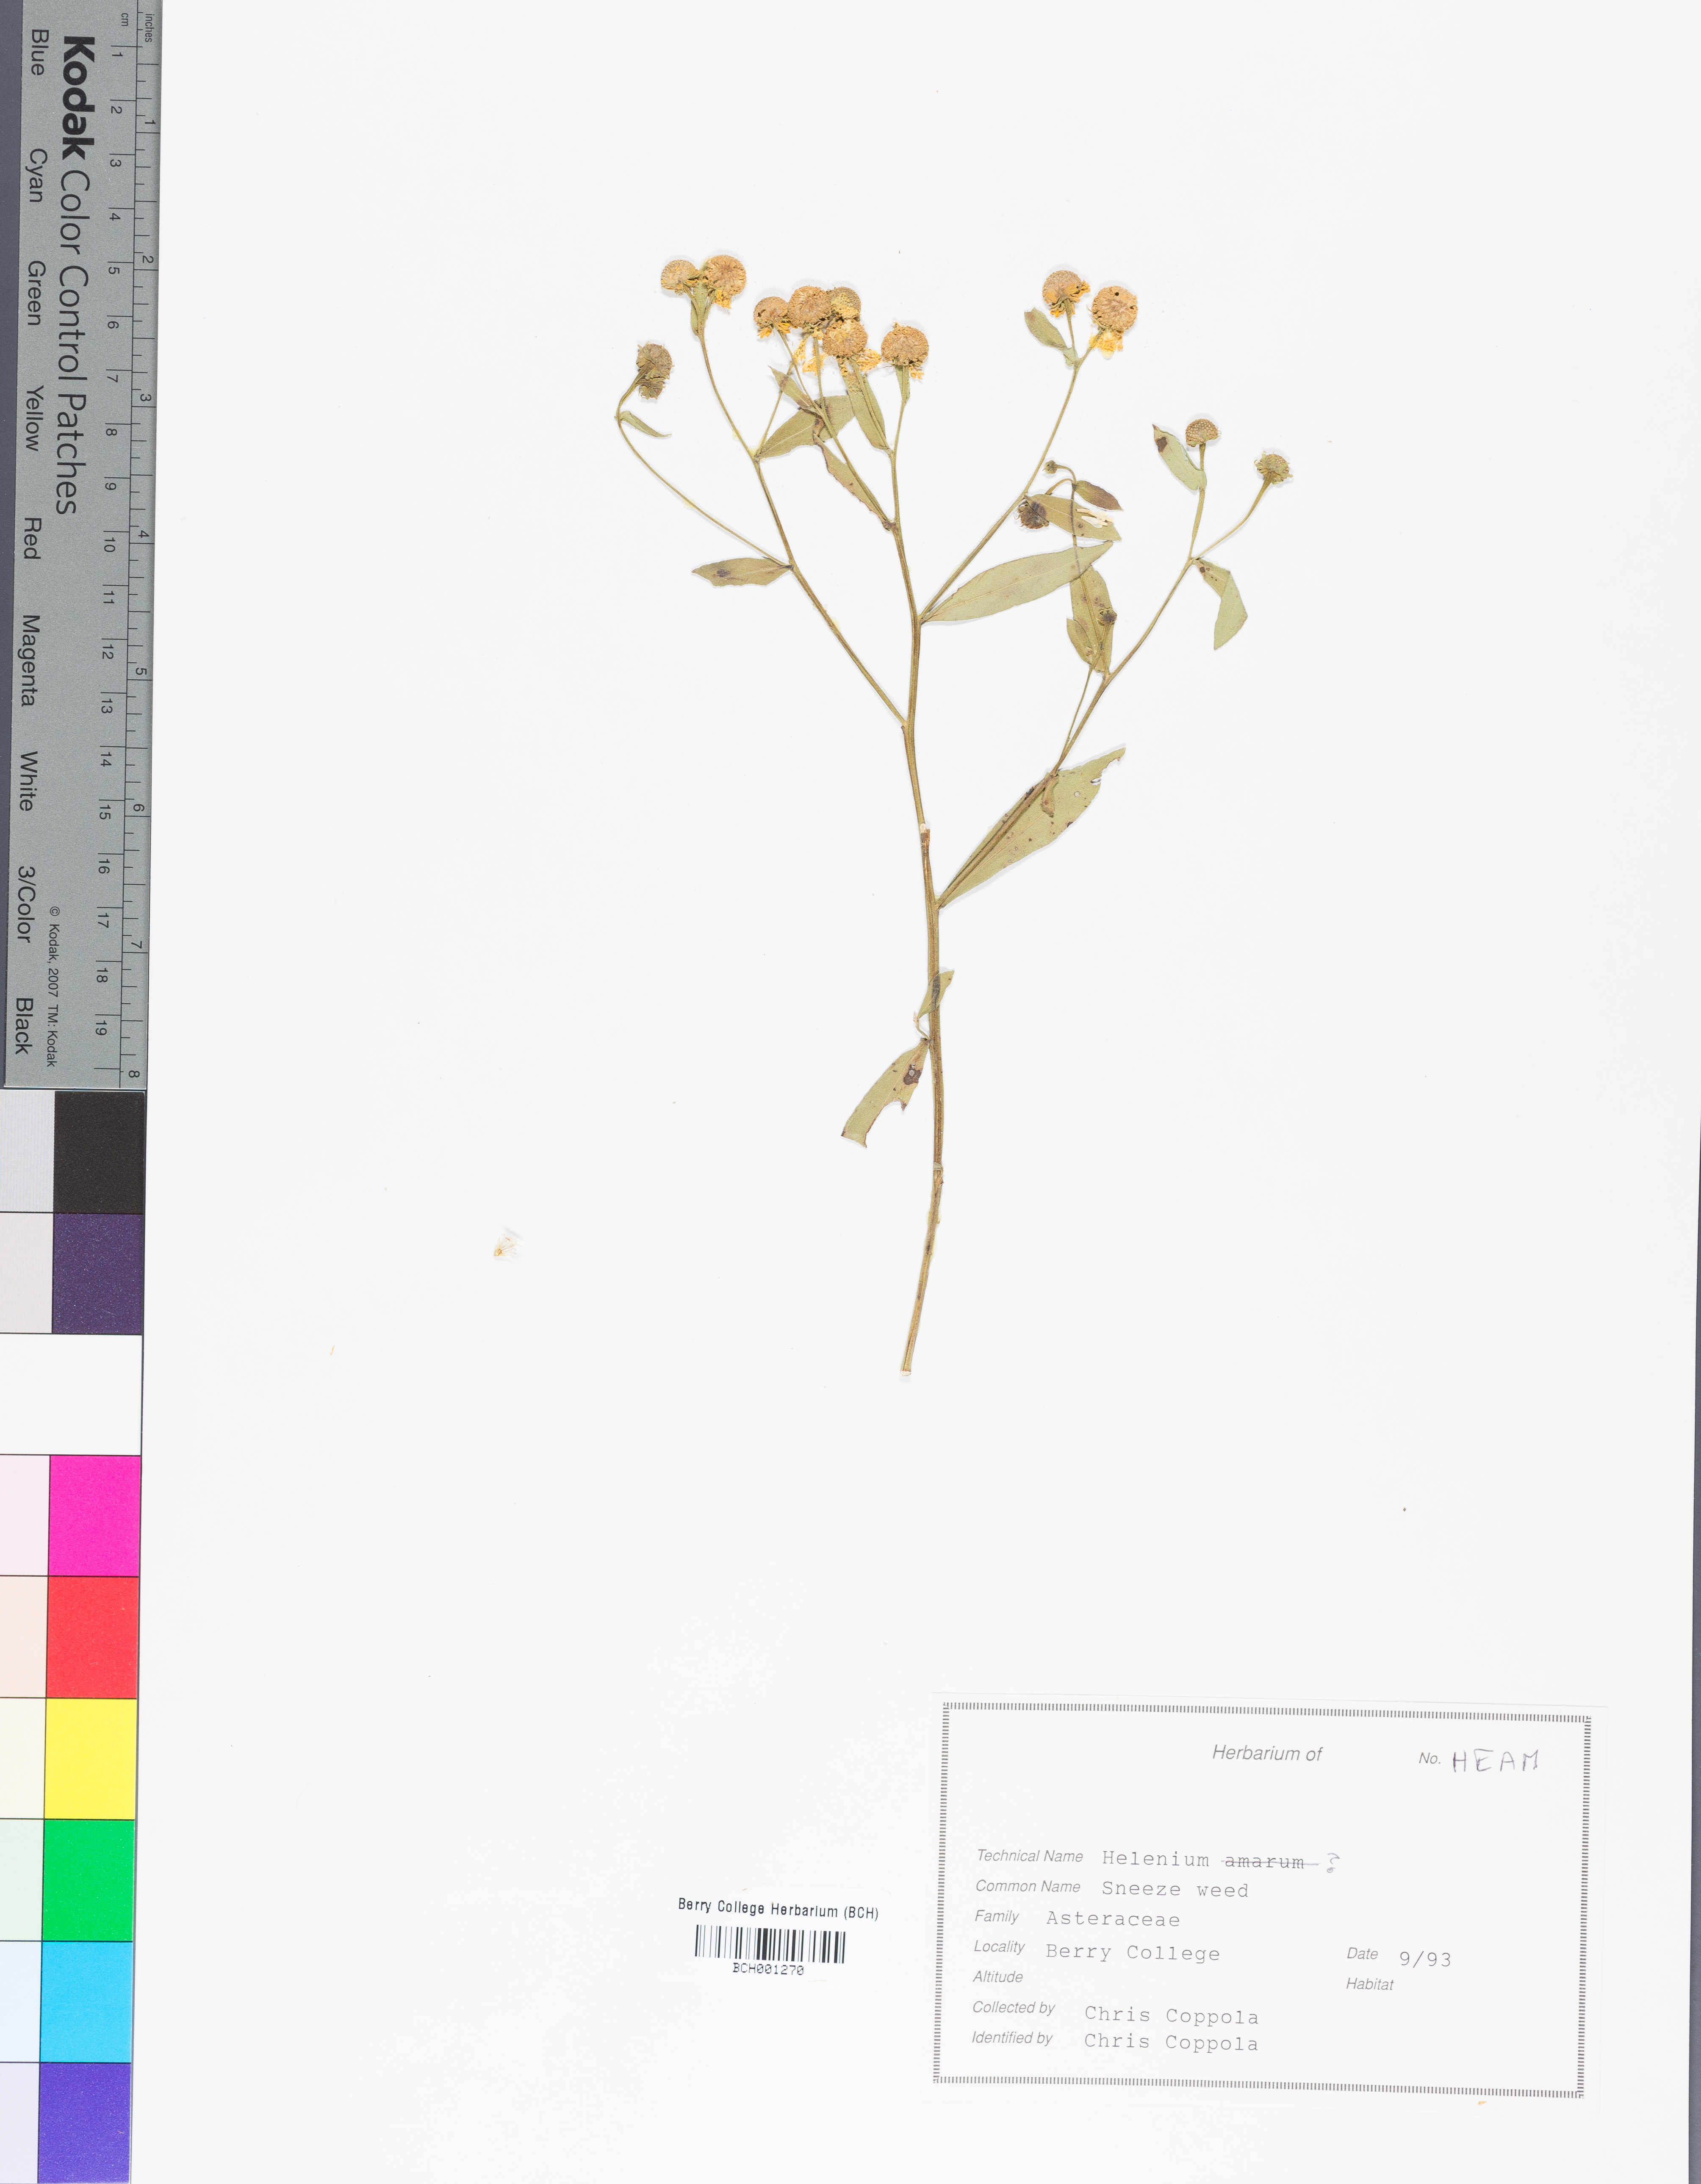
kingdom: Plantae
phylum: Tracheophyta
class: Magnoliopsida
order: Asterales
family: Asteraceae
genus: Helenium
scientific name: Helenium amarum
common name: Bitter sneezeweed
